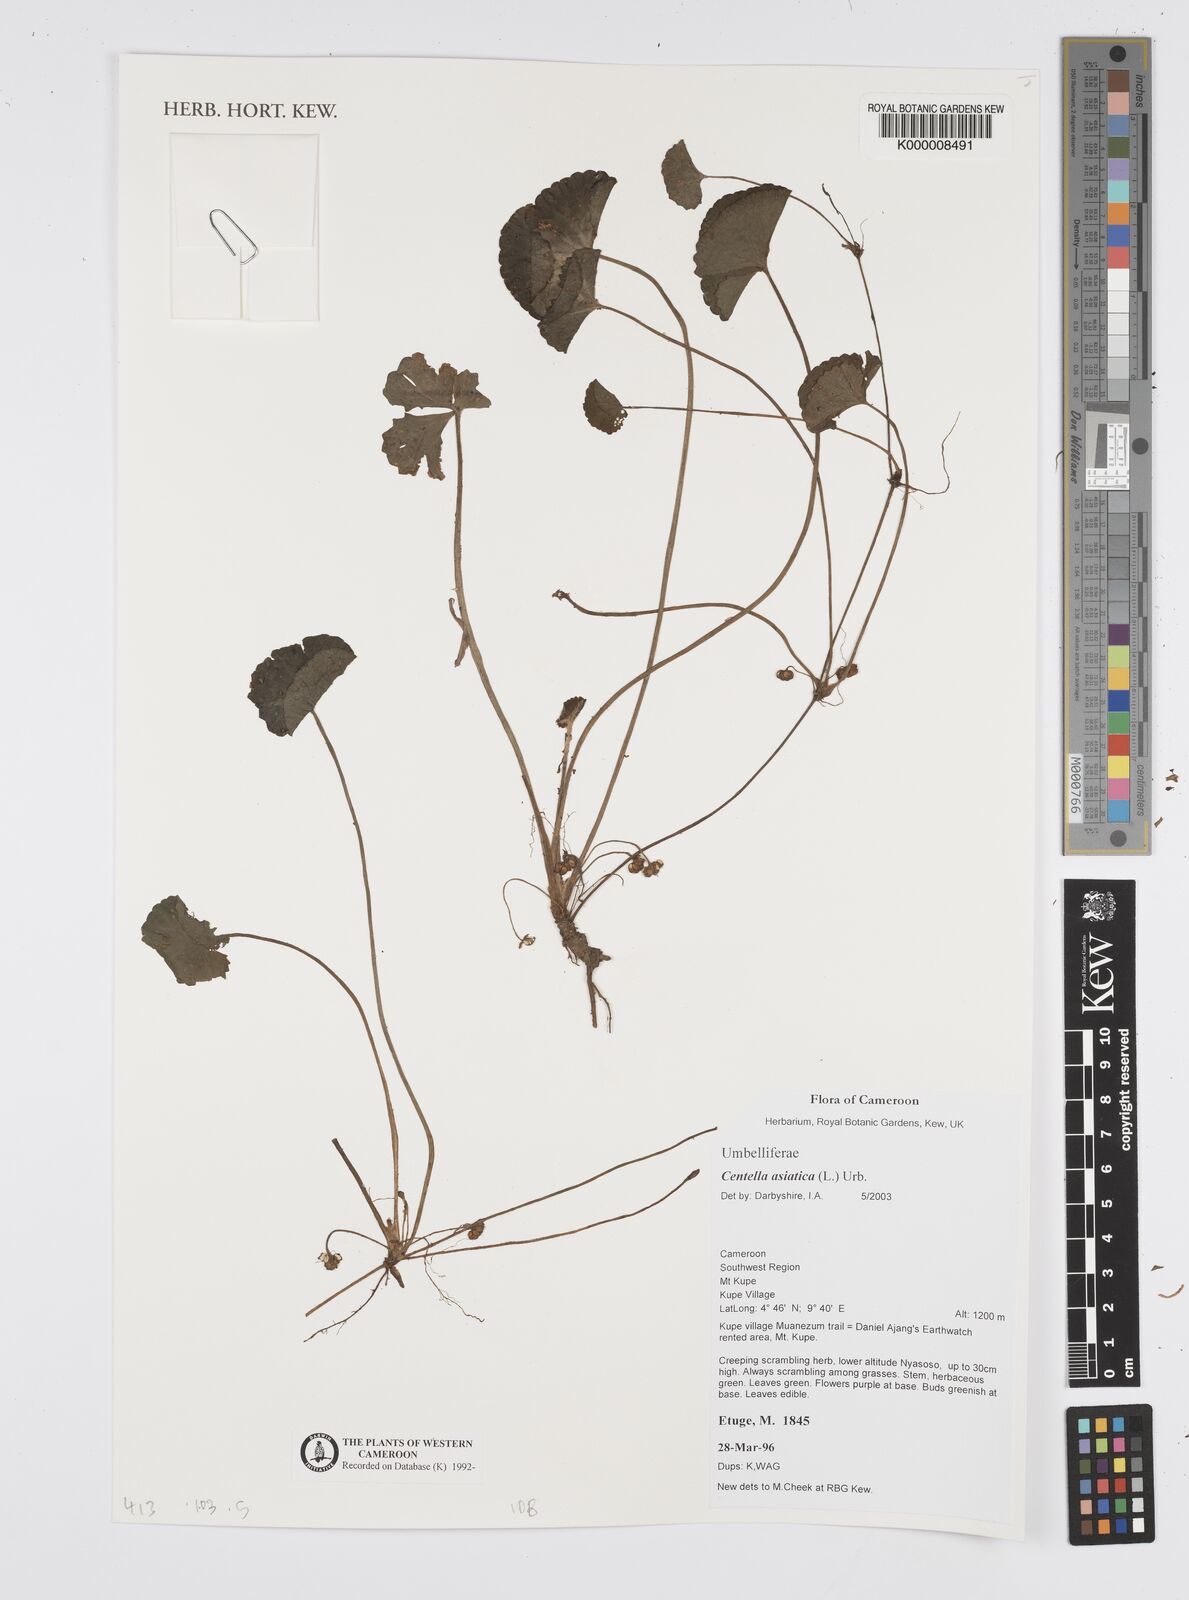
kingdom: Plantae
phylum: Tracheophyta
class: Magnoliopsida
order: Apiales
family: Apiaceae
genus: Centella
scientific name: Centella asiatica
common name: Spadeleaf
